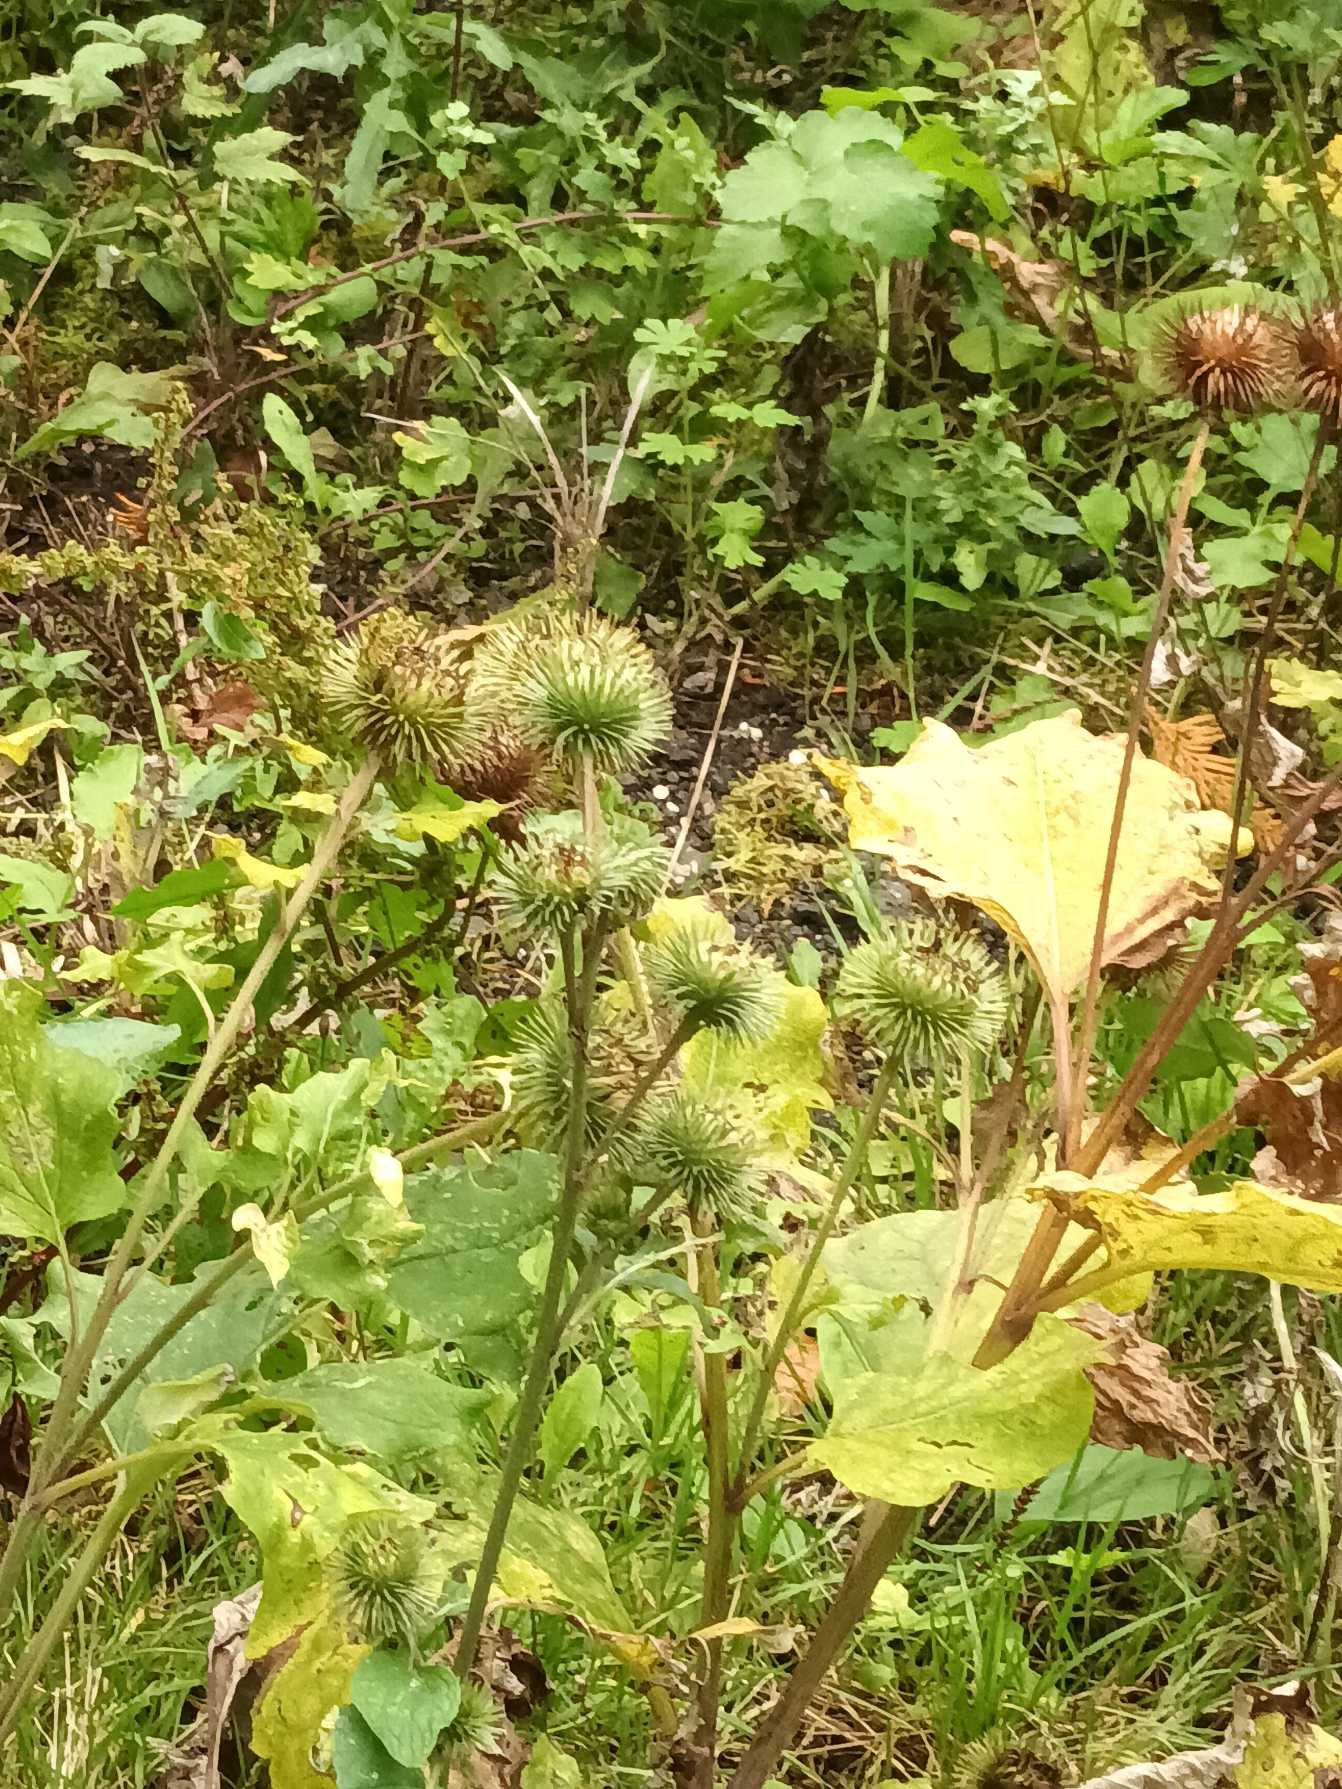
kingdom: Plantae
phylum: Tracheophyta
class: Magnoliopsida
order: Asterales
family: Asteraceae
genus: Arctium
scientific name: Arctium lappa
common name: Glat burre
